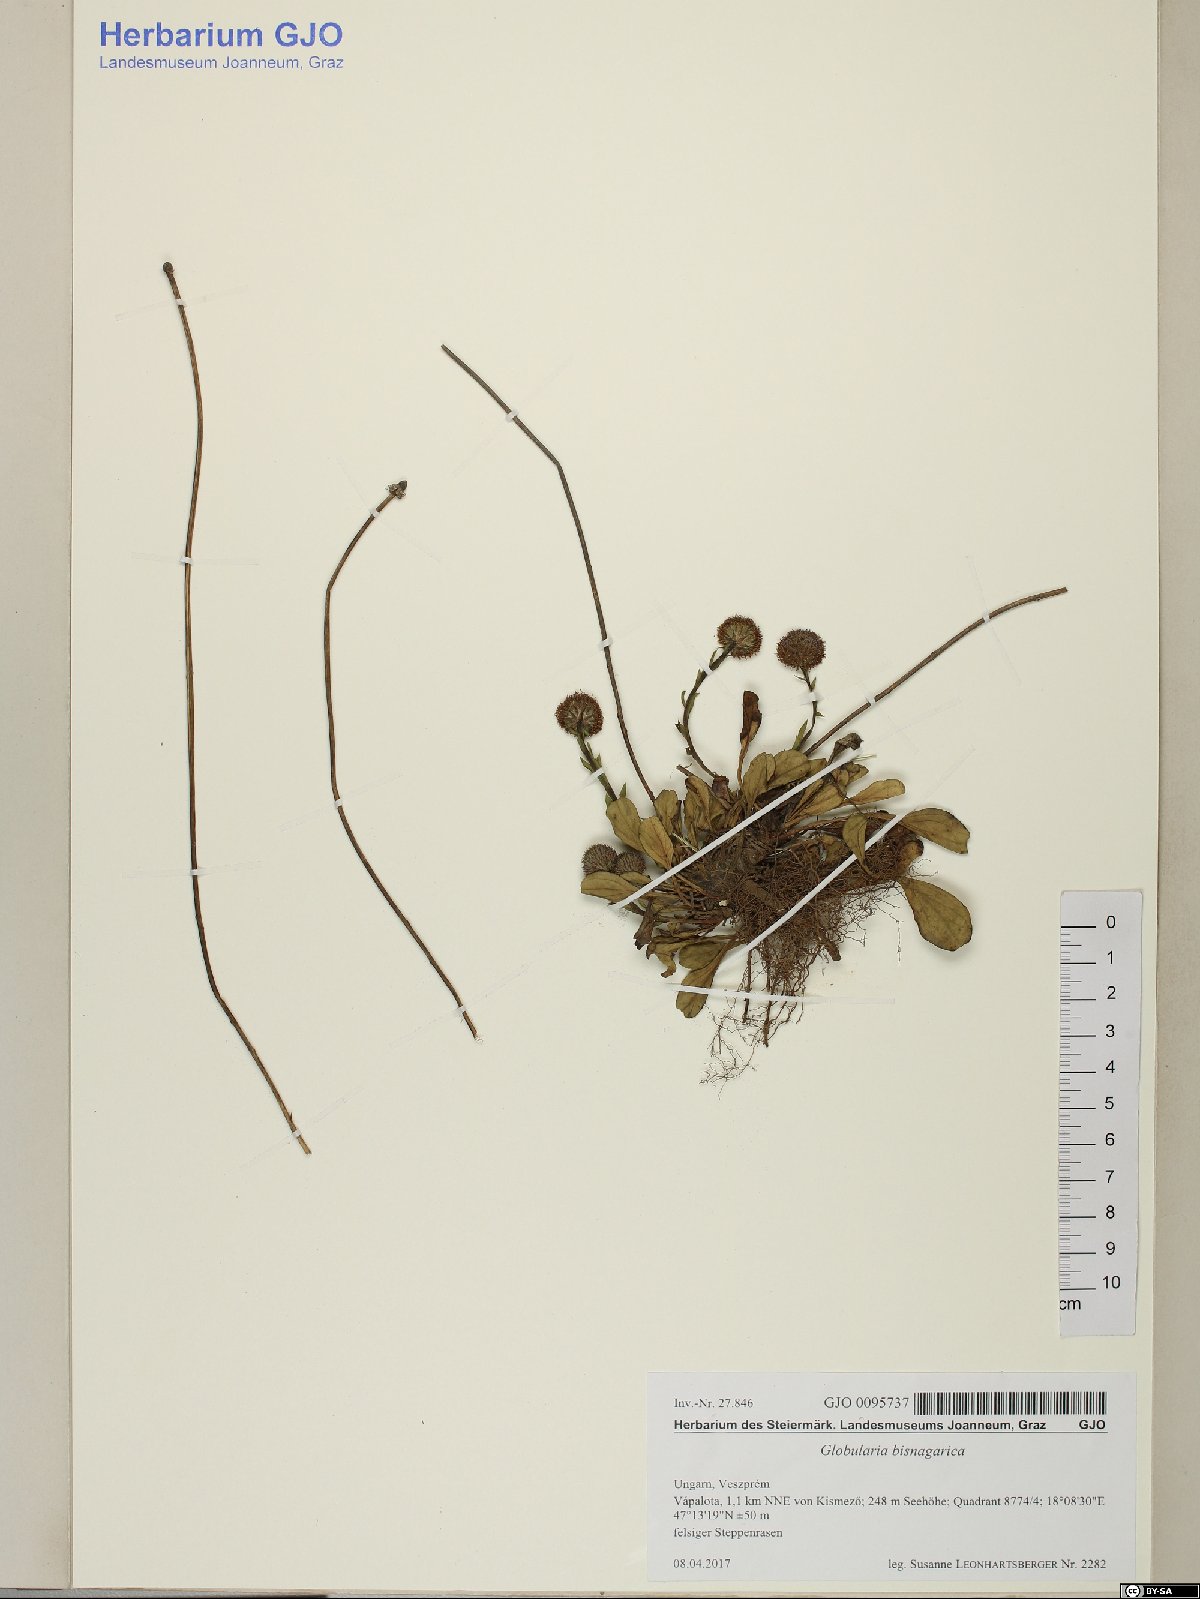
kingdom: Plantae
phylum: Tracheophyta
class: Magnoliopsida
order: Lamiales
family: Plantaginaceae
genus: Globularia
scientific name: Globularia bisnagarica
